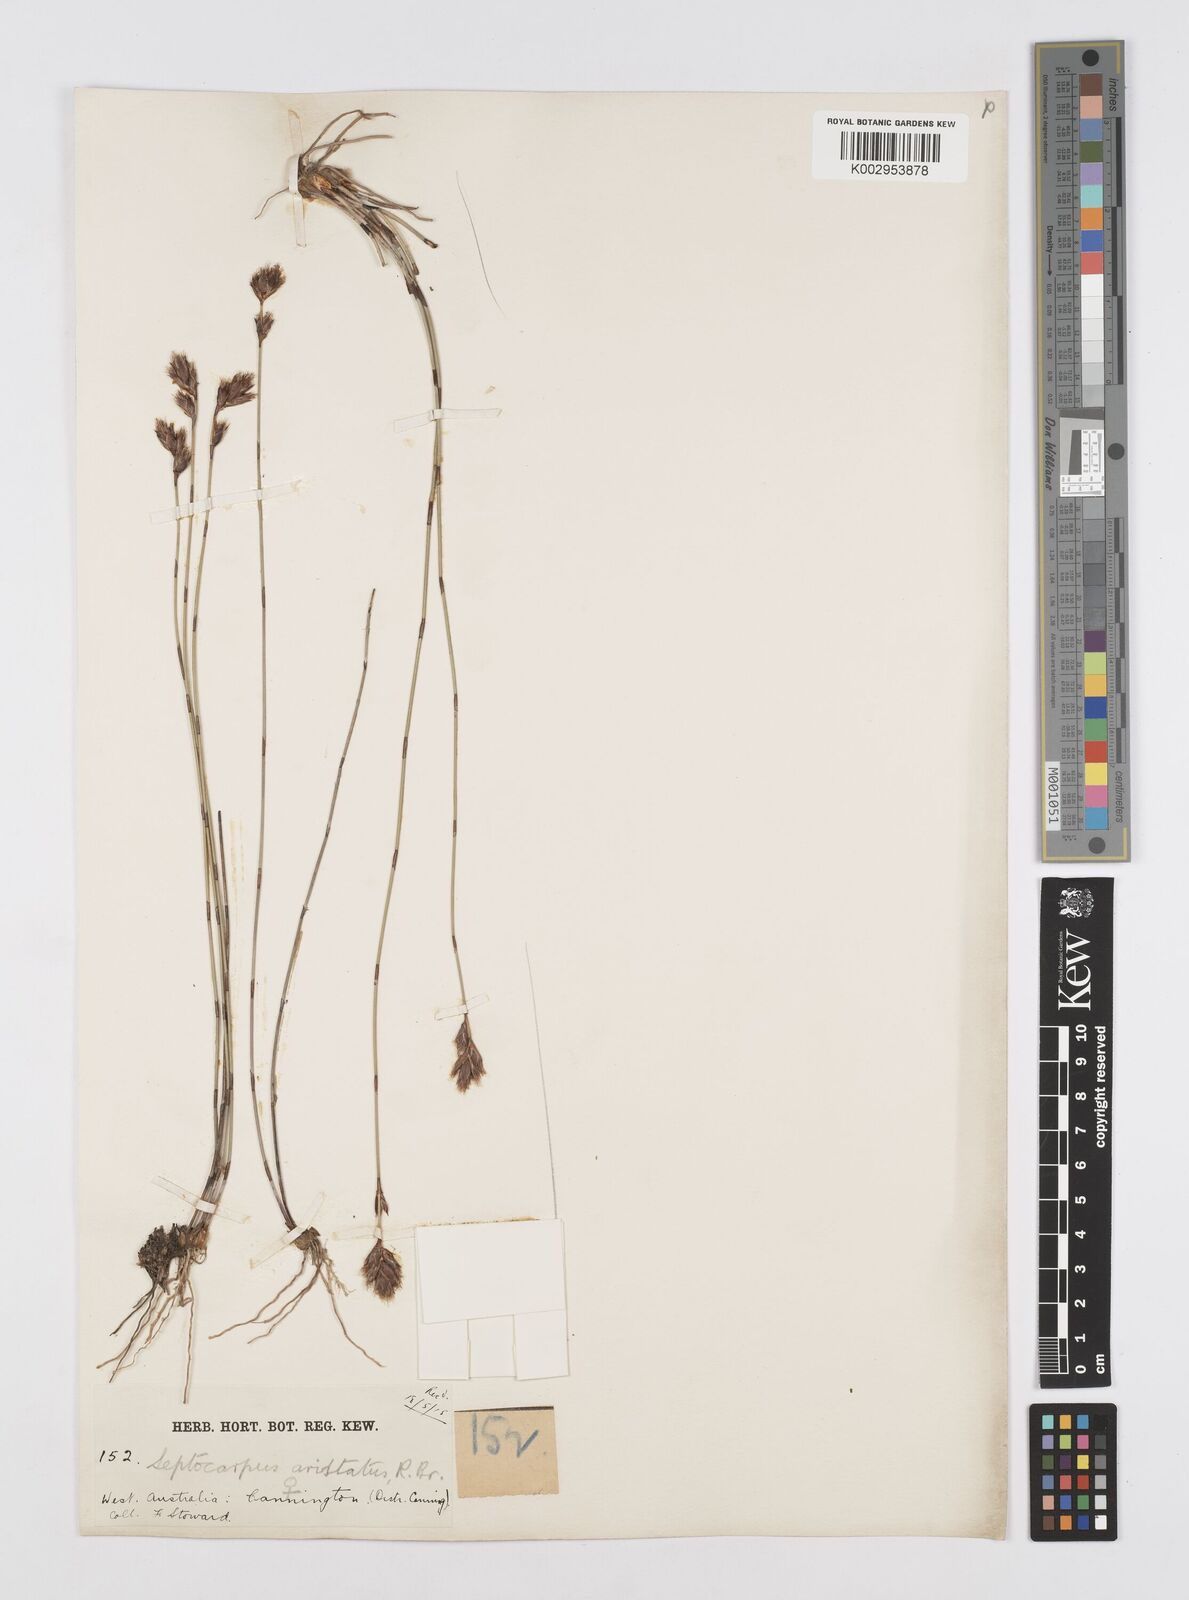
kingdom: Plantae
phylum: Tracheophyta
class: Liliopsida
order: Poales
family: Restionaceae
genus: Chaetanthus
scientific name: Chaetanthus aristatus
